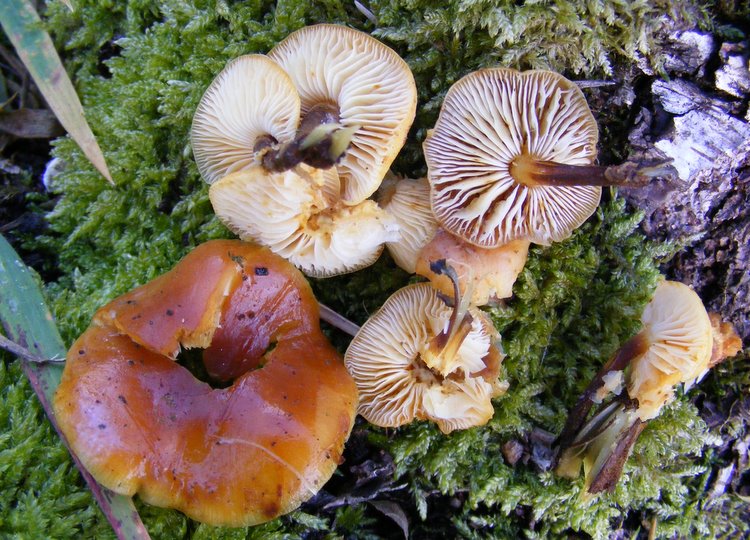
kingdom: Fungi
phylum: Basidiomycota
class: Agaricomycetes
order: Agaricales
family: Physalacriaceae
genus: Flammulina
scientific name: Flammulina velutipes
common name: gul fløjlsfod
